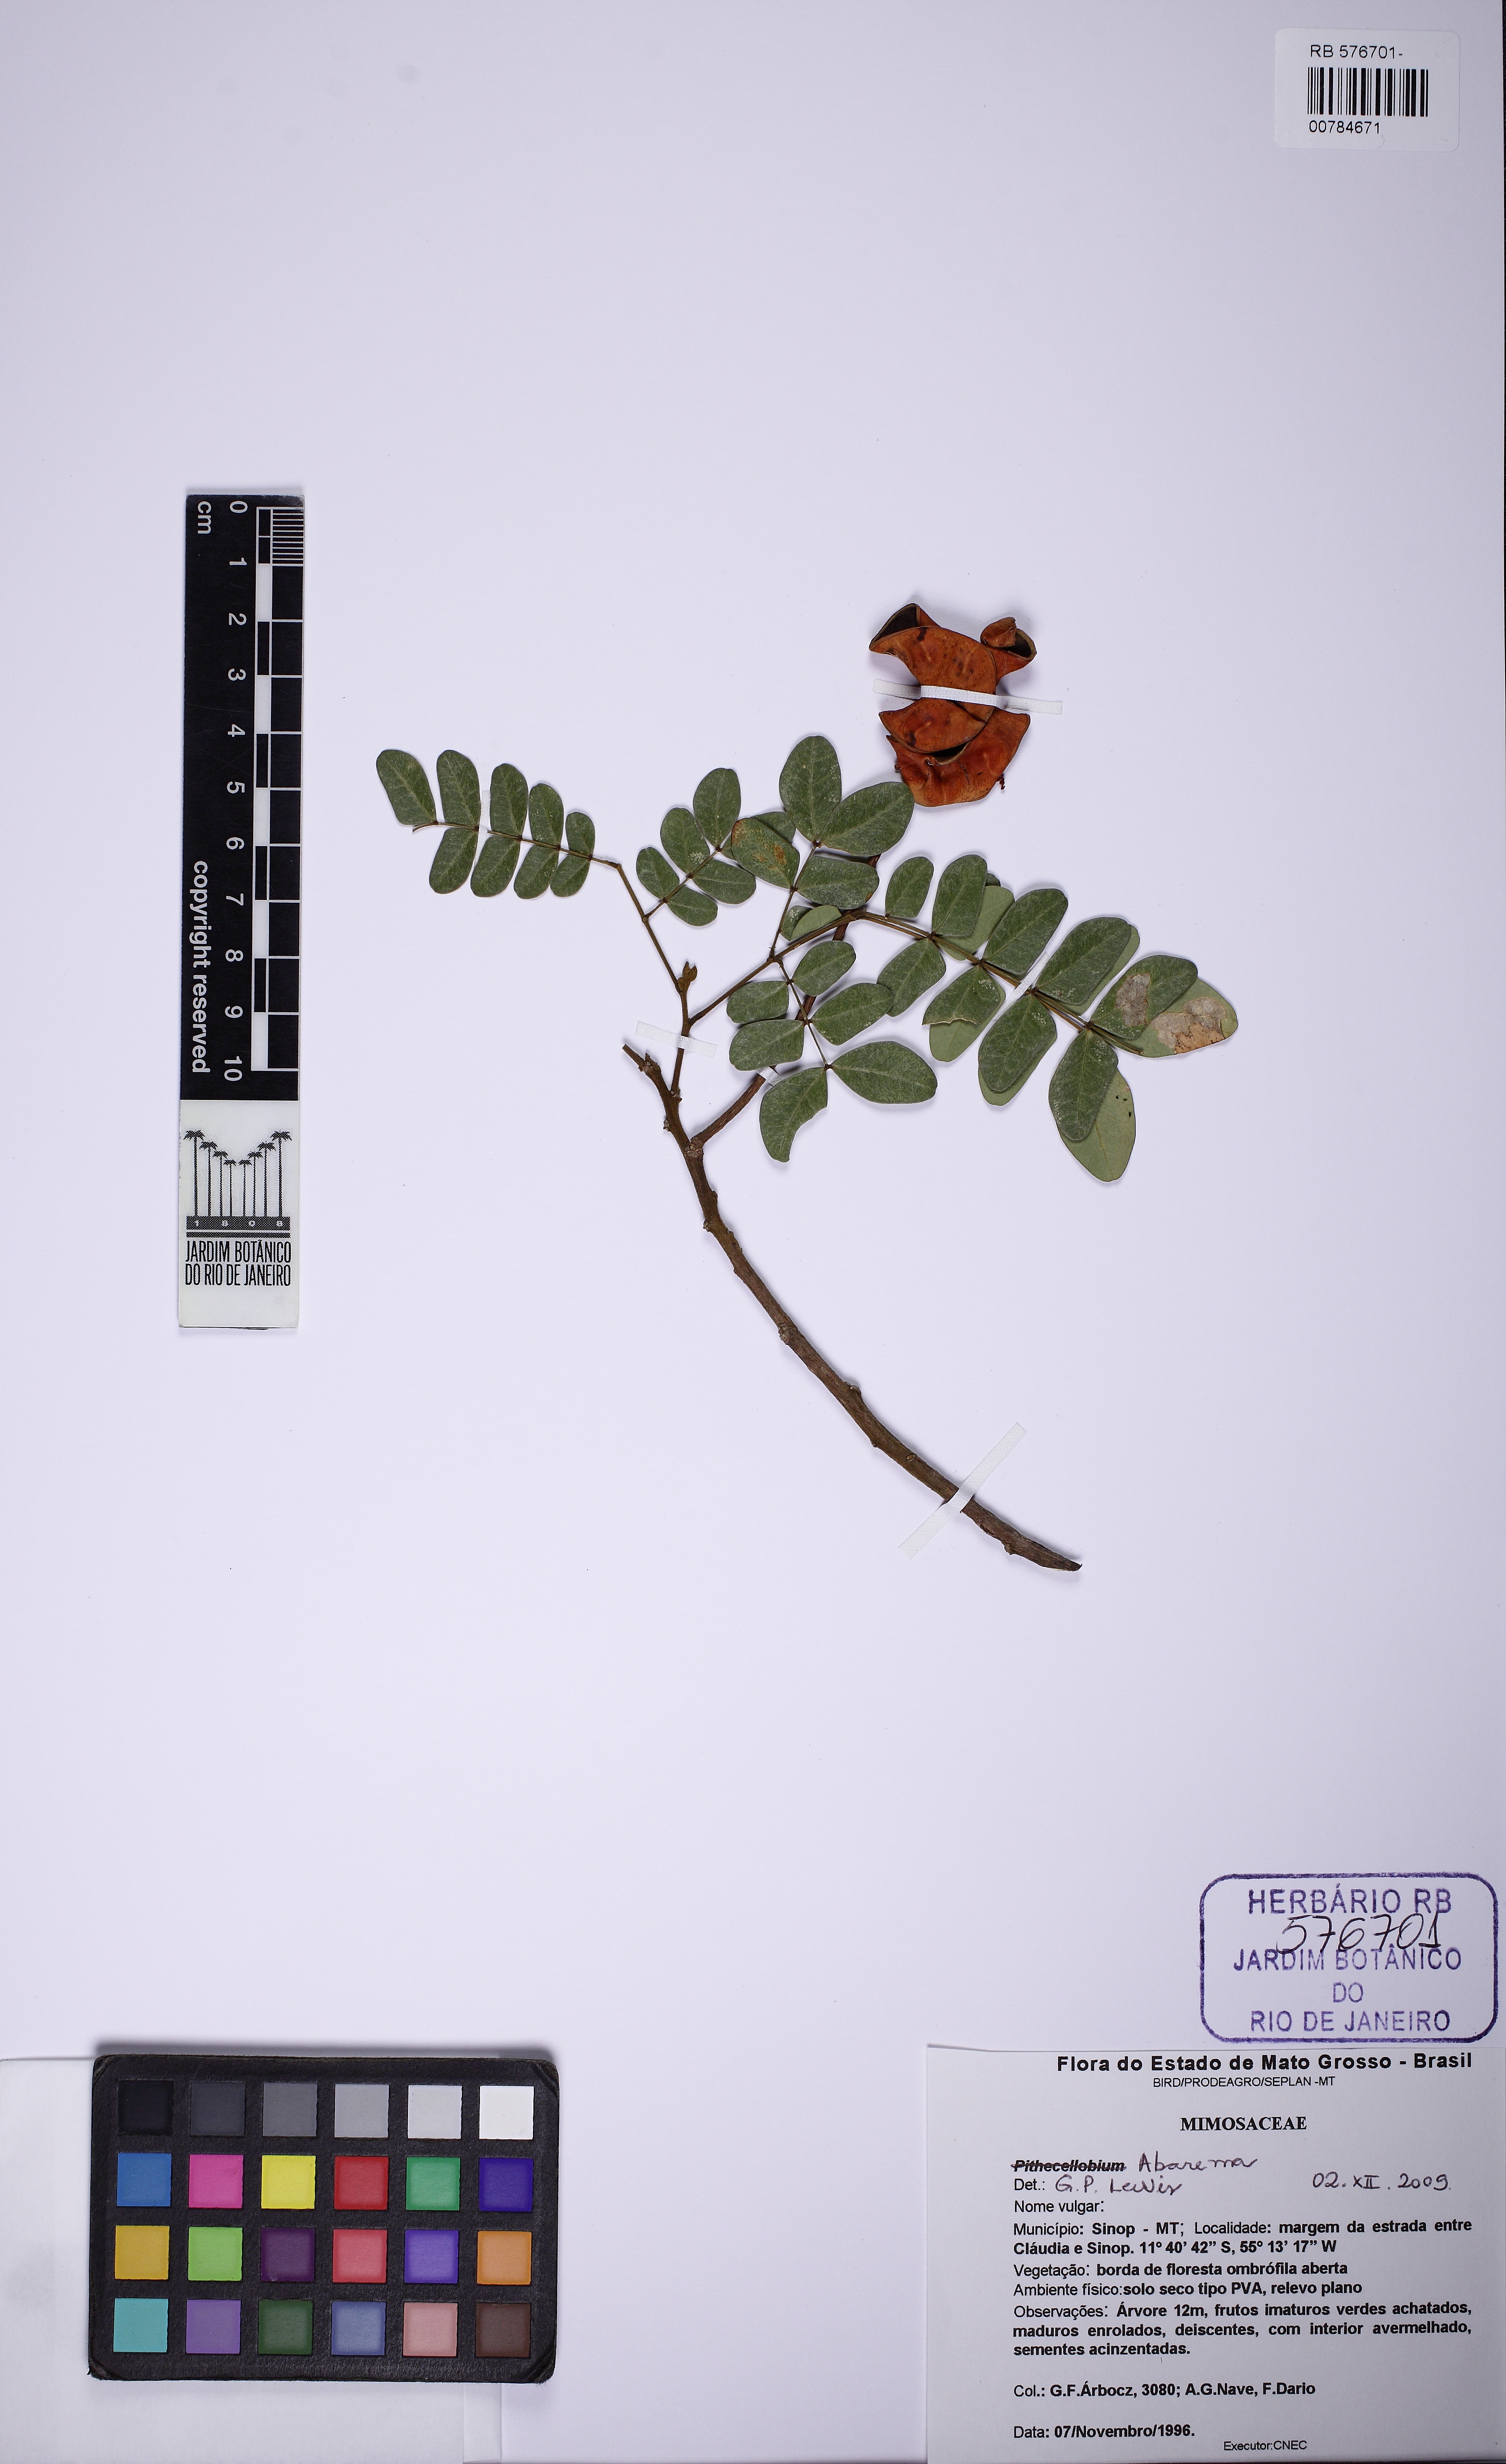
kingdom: Plantae
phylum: Tracheophyta
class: Magnoliopsida
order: Fabales
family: Fabaceae
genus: Jupunba
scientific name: Jupunba trapezifolia
